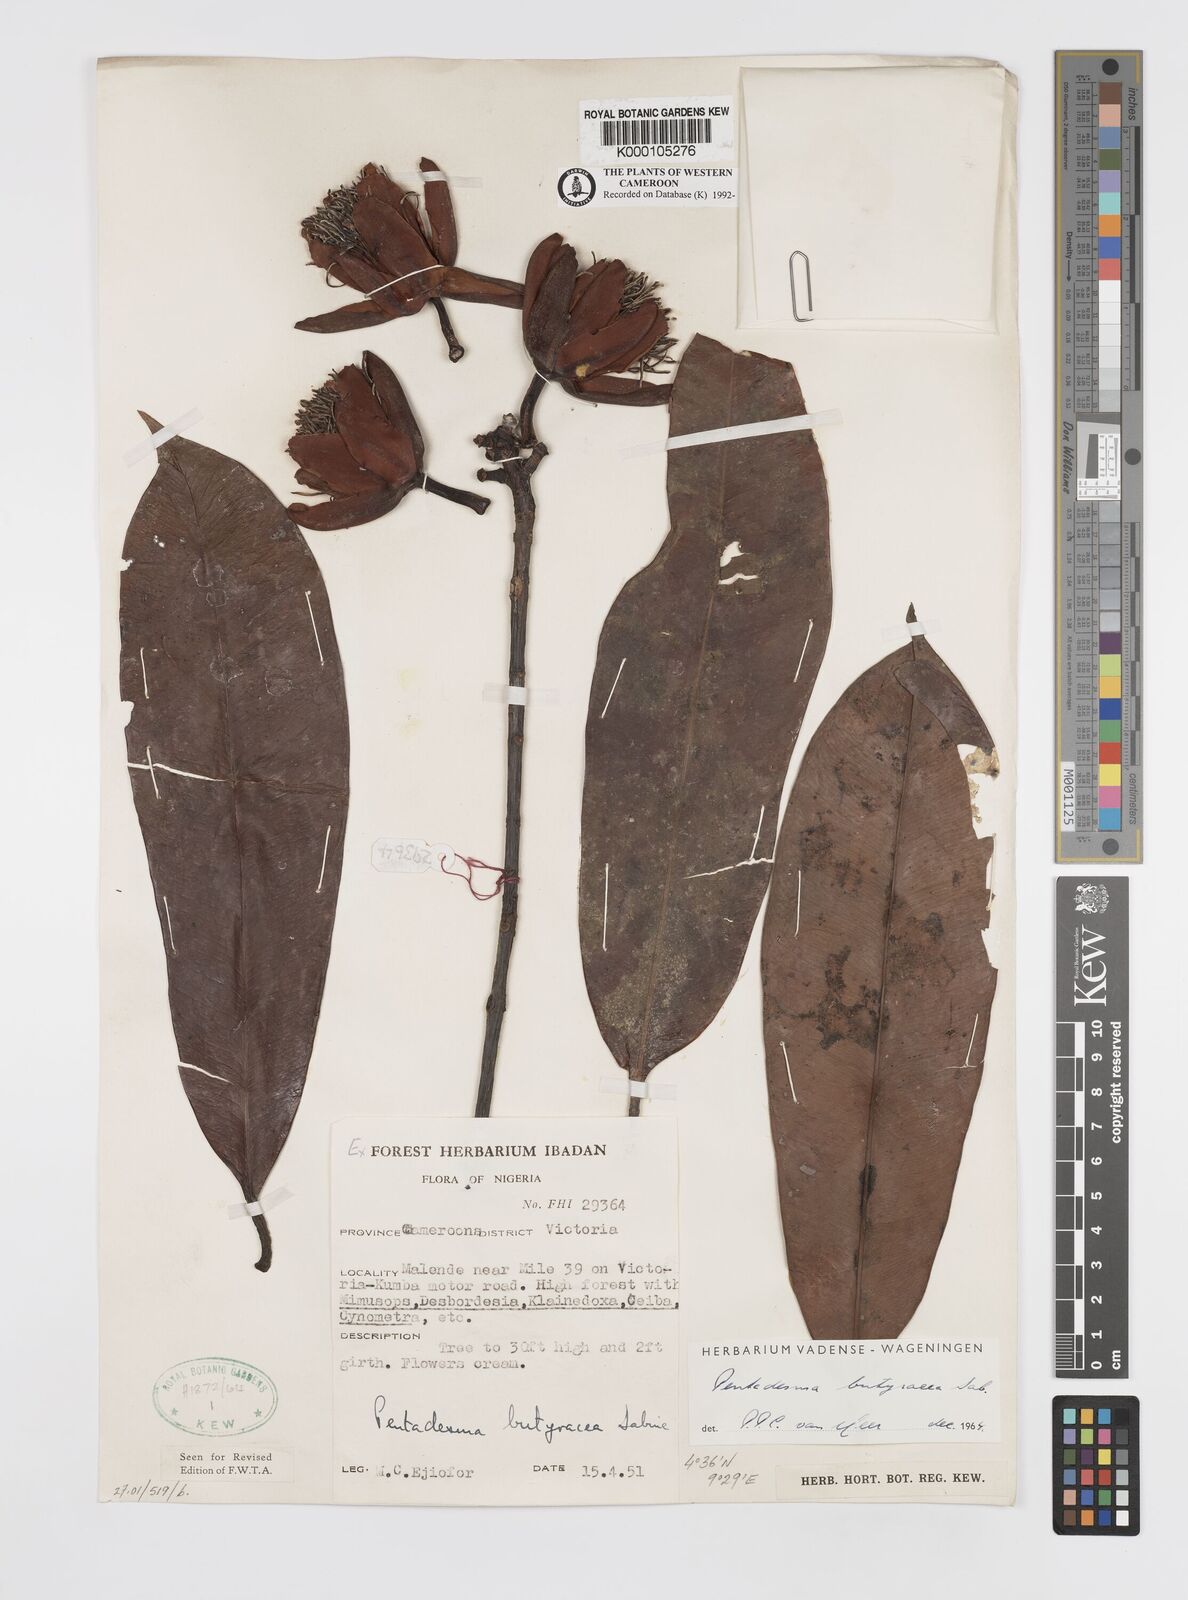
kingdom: Plantae
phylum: Tracheophyta
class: Magnoliopsida
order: Malpighiales
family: Clusiaceae
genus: Pentadesma
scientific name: Pentadesma butyracea
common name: Buttertree
